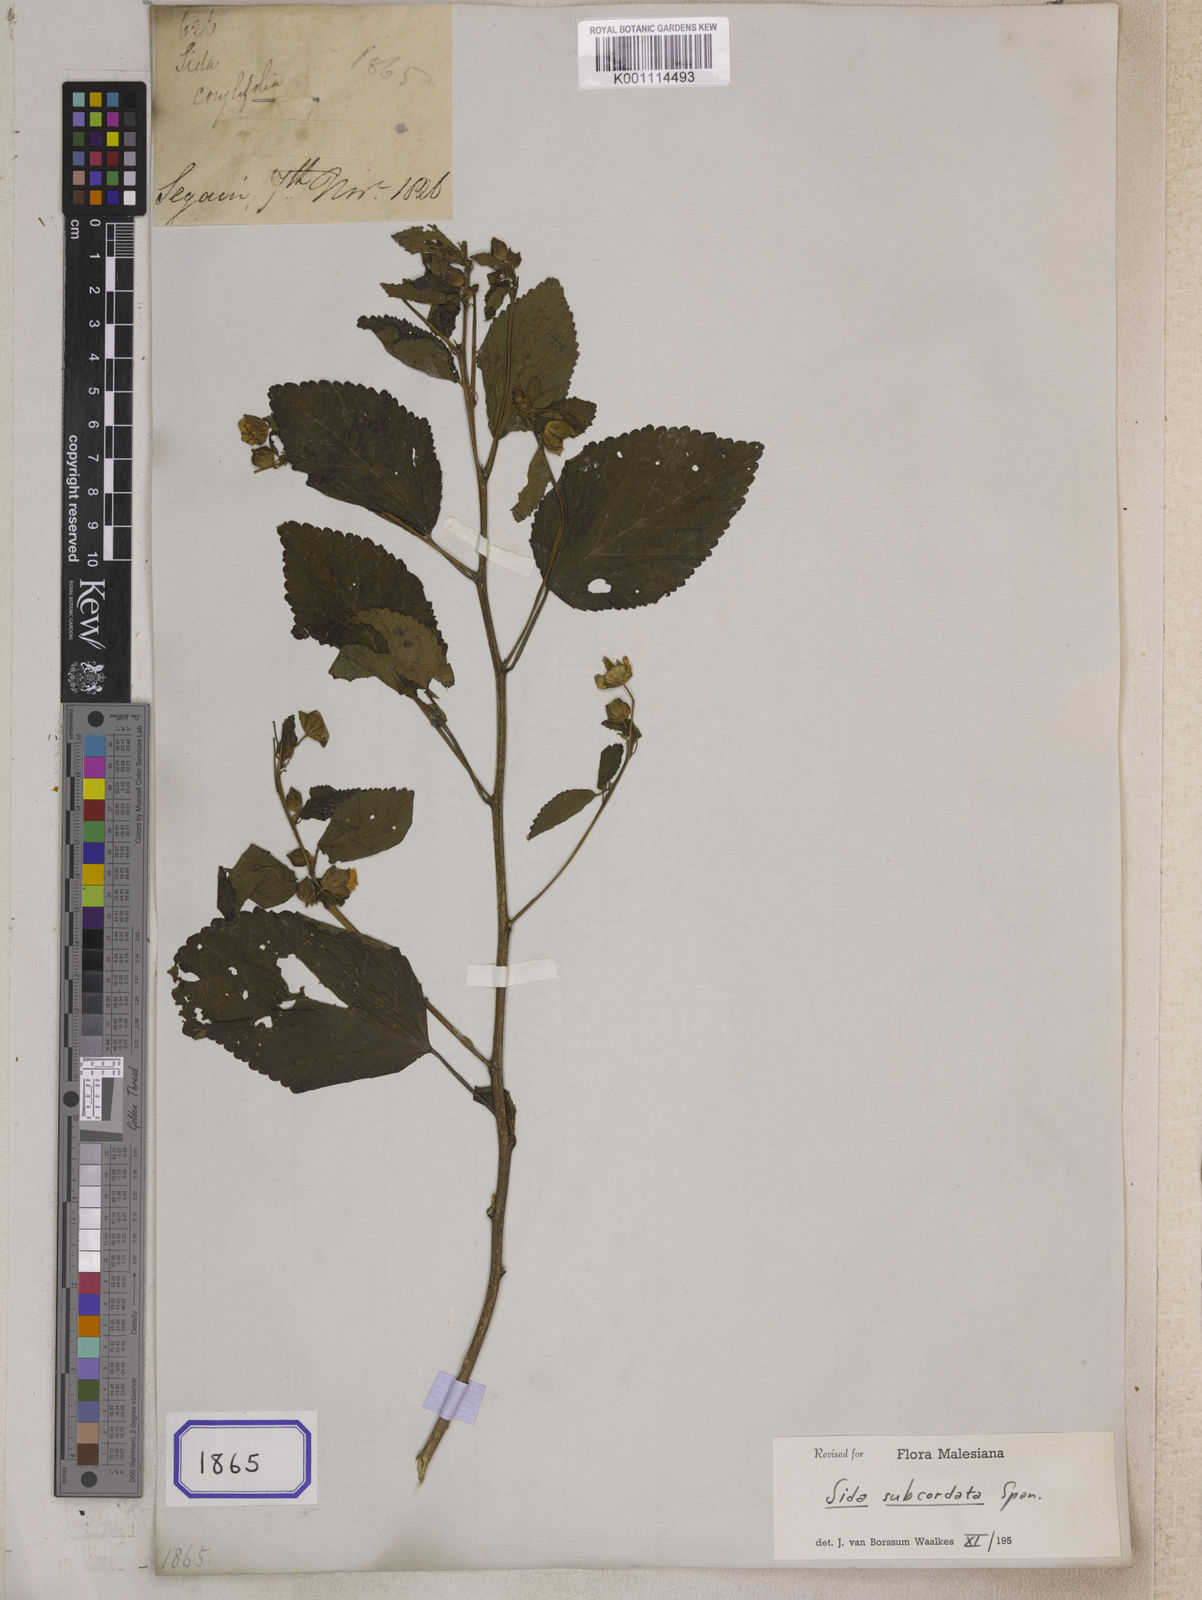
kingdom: Plantae
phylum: Tracheophyta
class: Magnoliopsida
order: Malvales
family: Malvaceae
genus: Sida
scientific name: Sida
